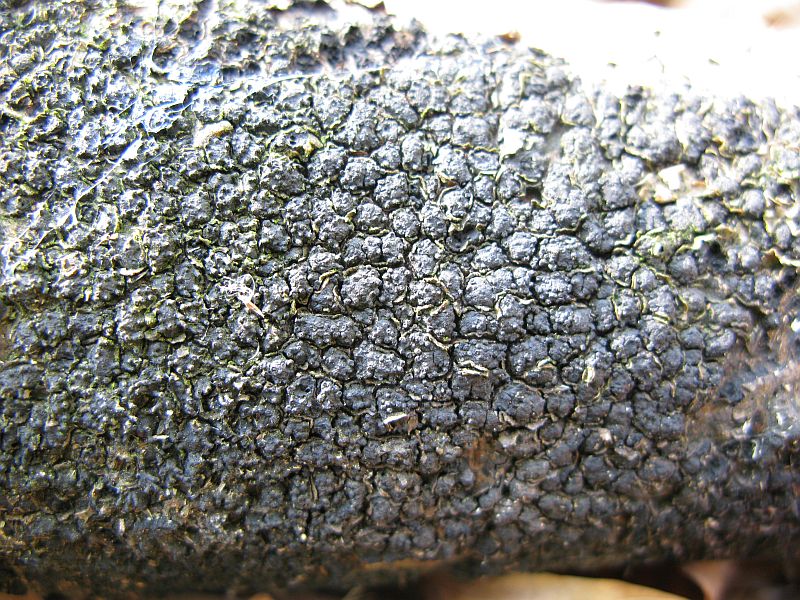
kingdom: Fungi
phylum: Ascomycota
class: Sordariomycetes
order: Xylariales
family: Melogrammataceae
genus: Melogramma
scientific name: Melogramma spiniferum
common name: bøgefod-kulhals
